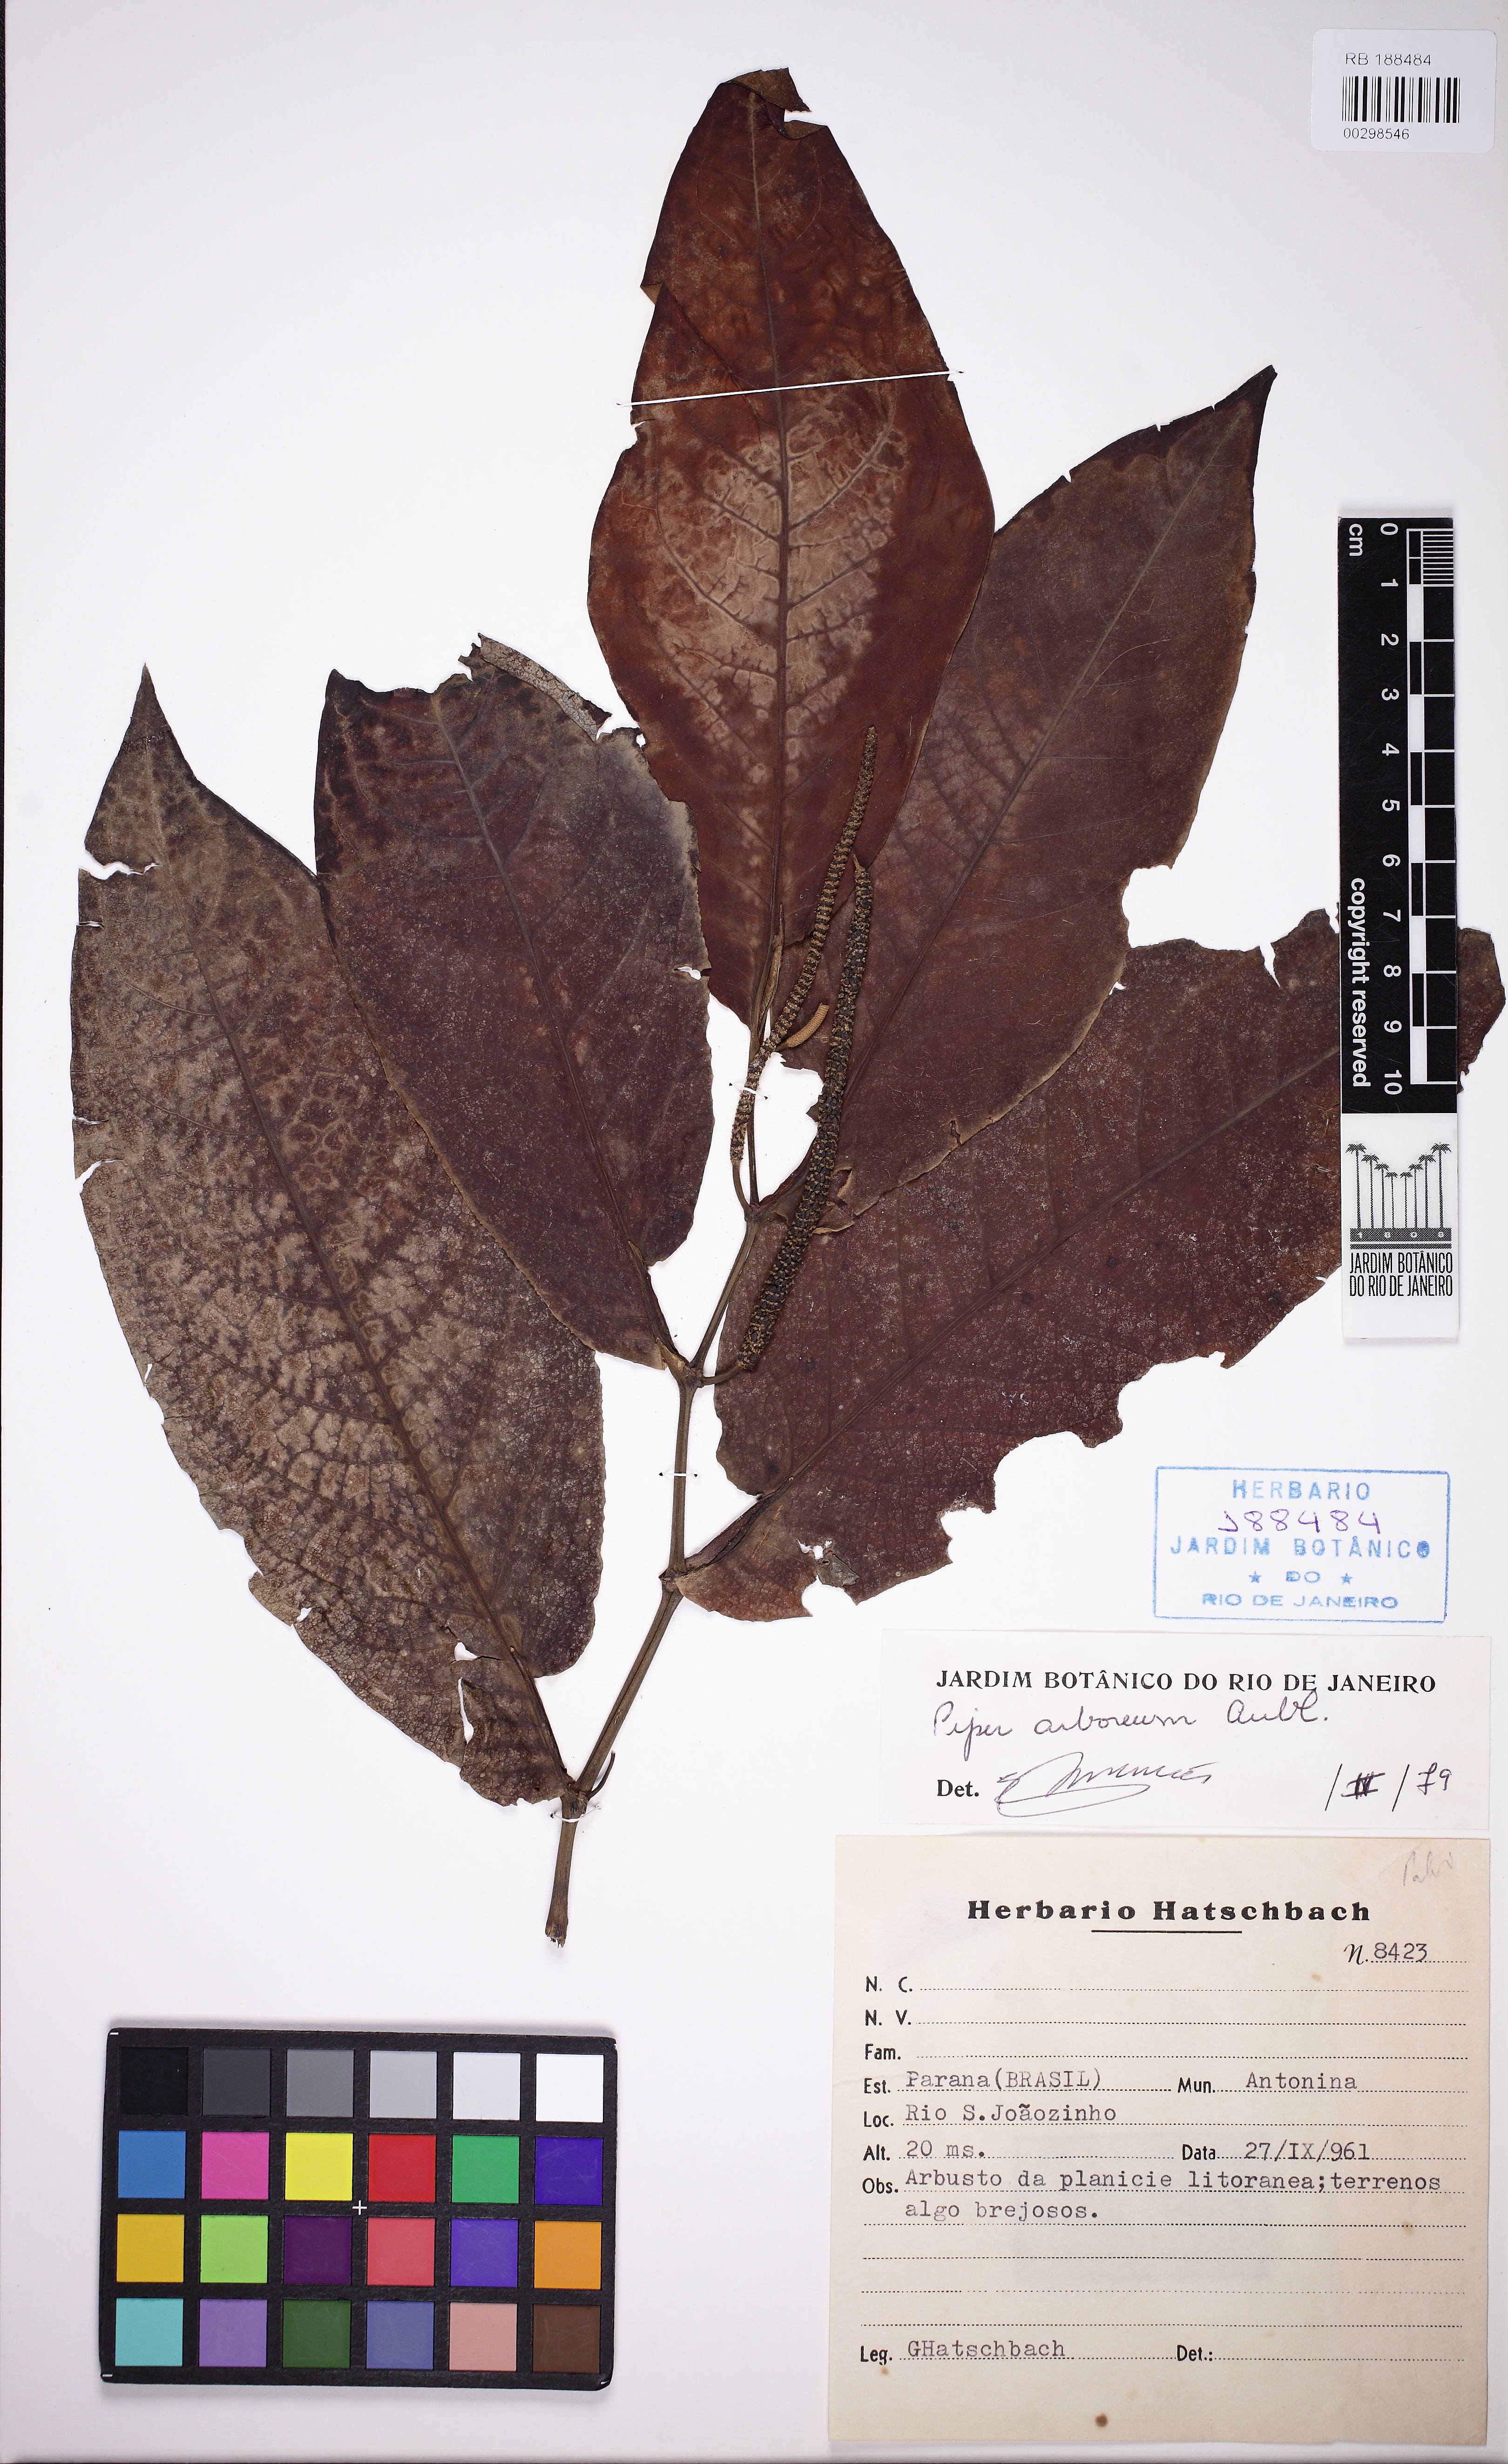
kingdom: Plantae
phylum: Tracheophyta
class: Magnoliopsida
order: Piperales
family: Piperaceae
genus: Piper
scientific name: Piper arboreum
